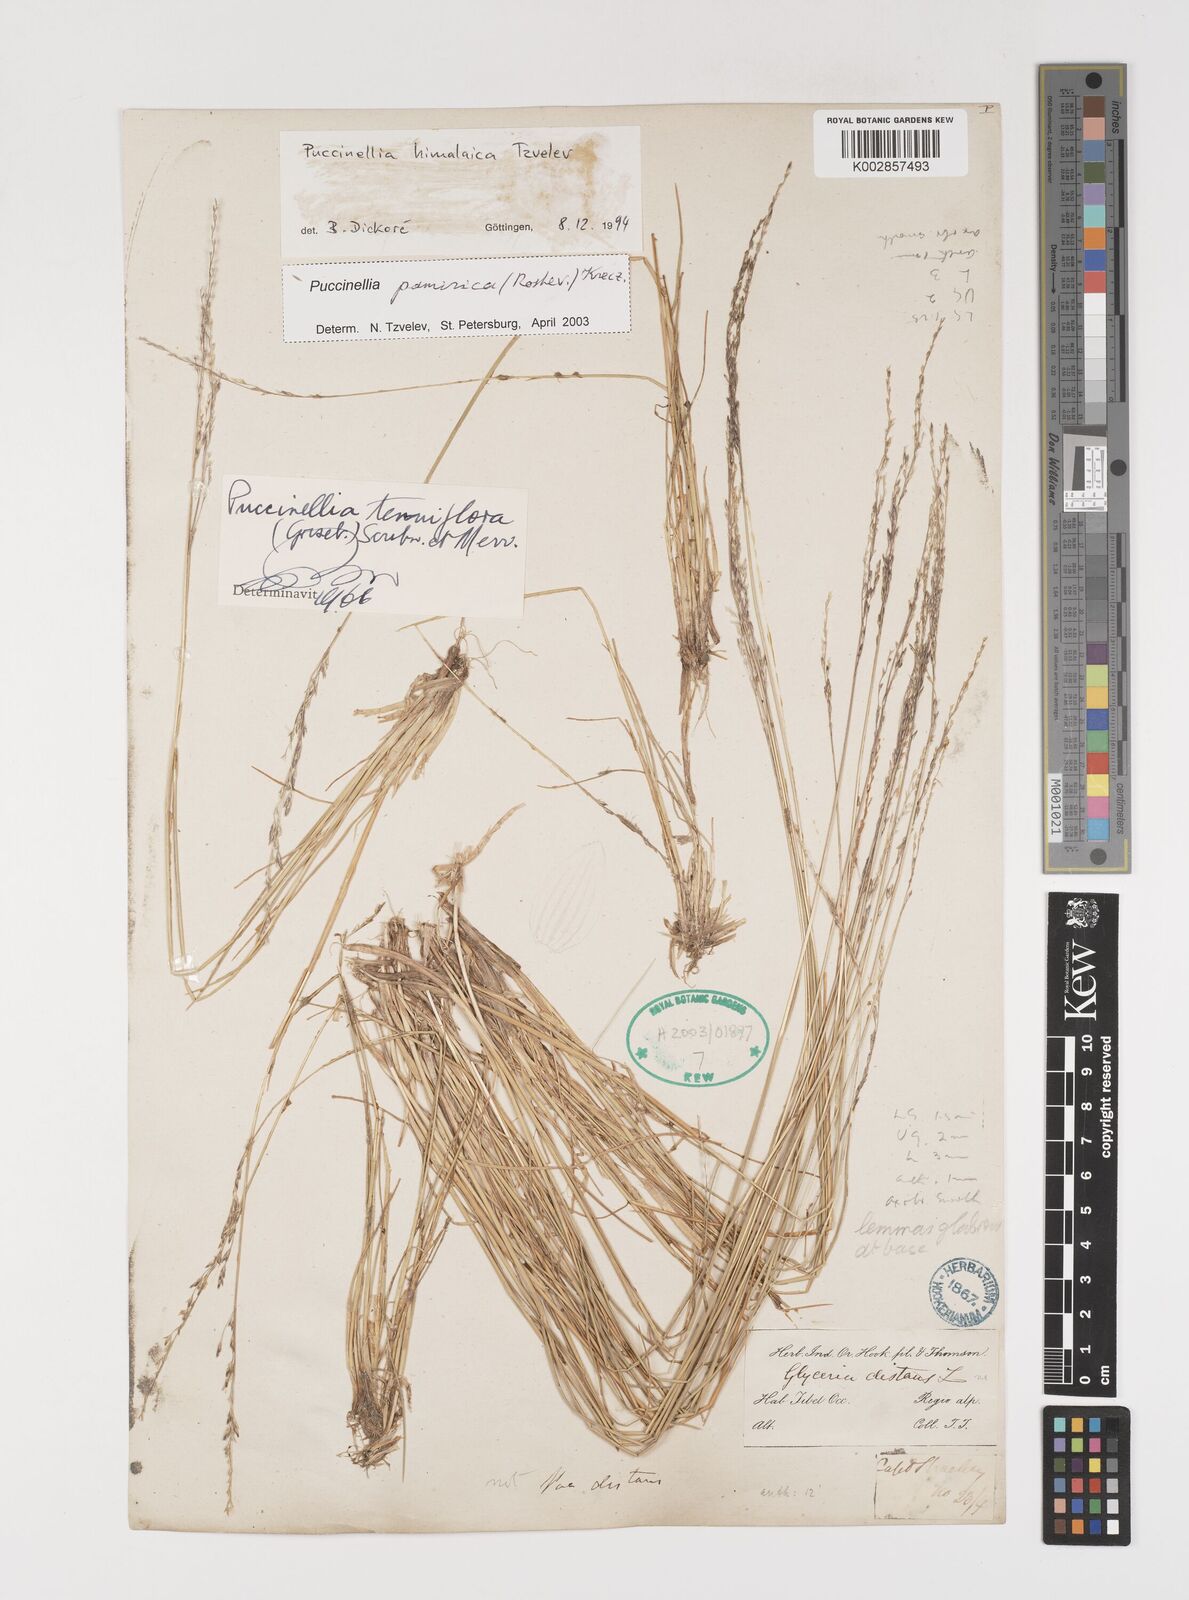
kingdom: Plantae
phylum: Tracheophyta
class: Liliopsida
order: Poales
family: Poaceae
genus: Puccinellia
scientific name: Puccinellia pamirica
